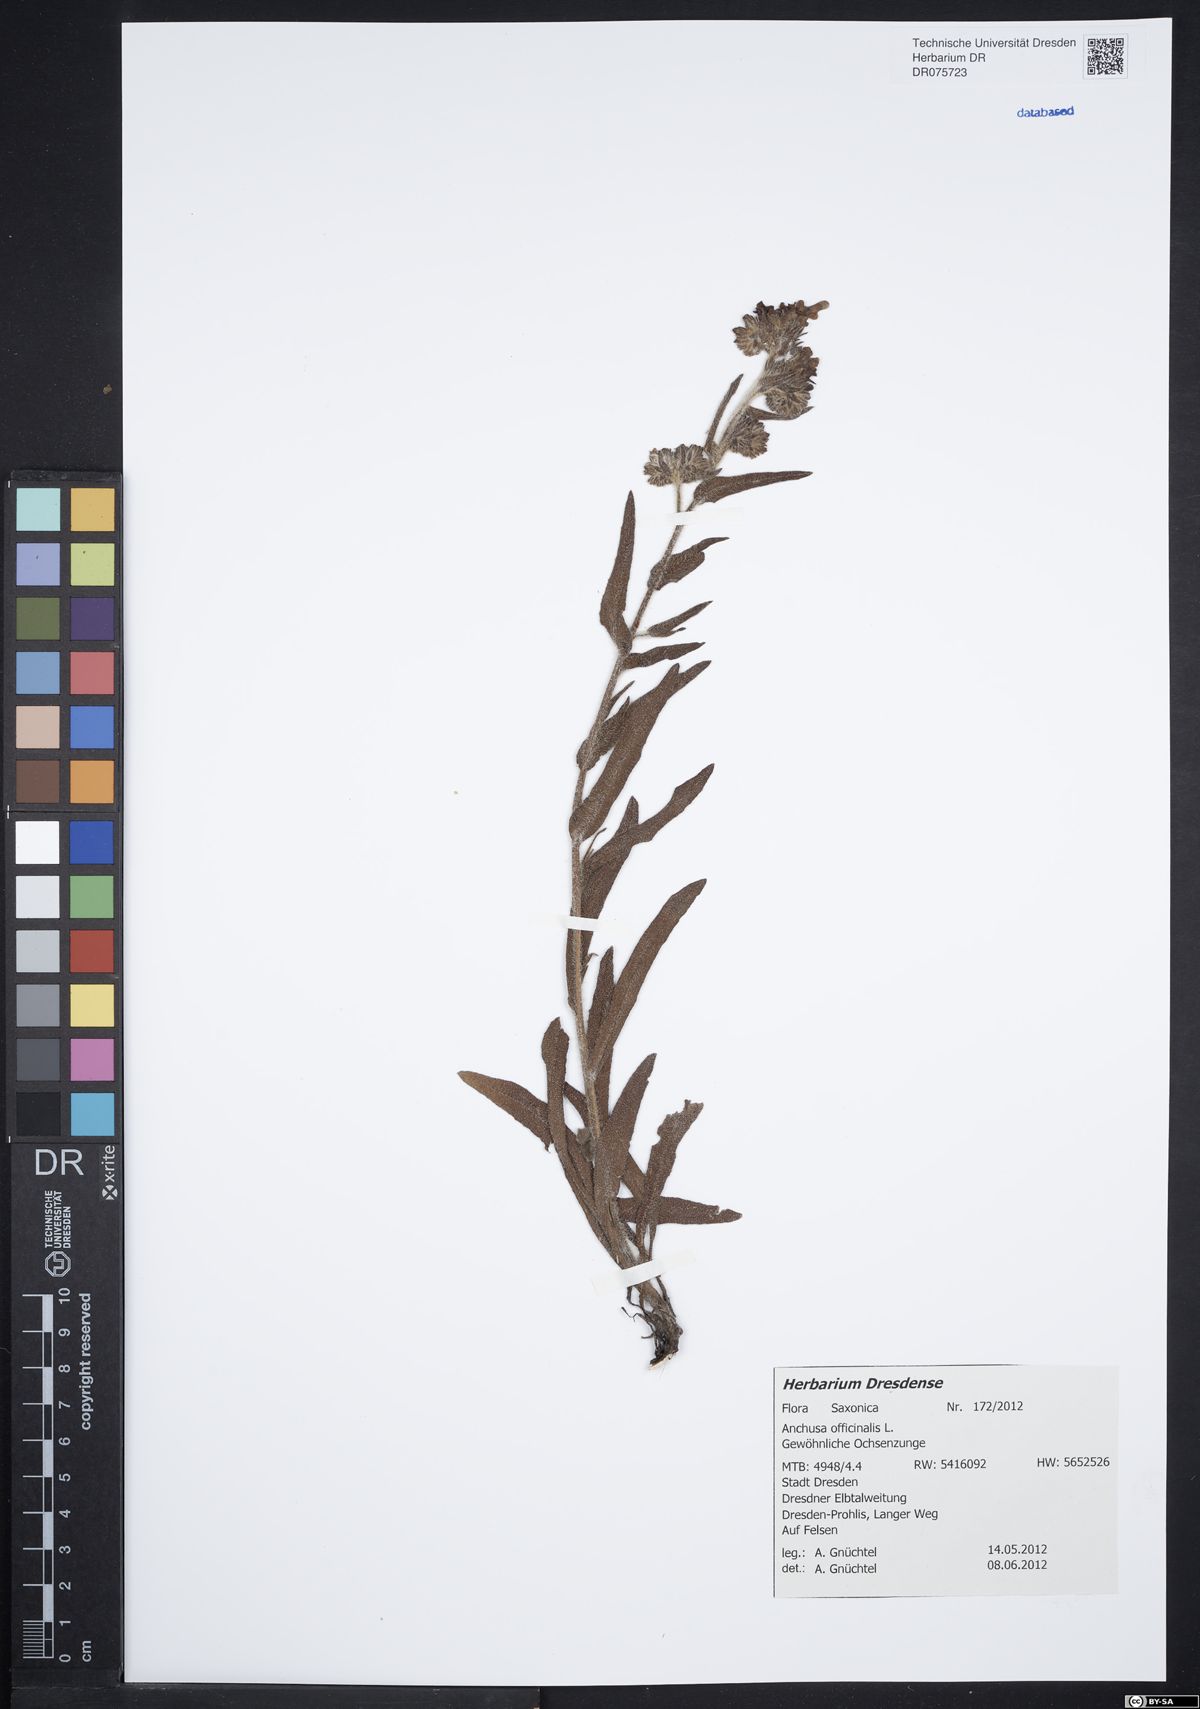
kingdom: Plantae
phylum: Tracheophyta
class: Magnoliopsida
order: Boraginales
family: Boraginaceae
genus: Anchusa
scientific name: Anchusa officinalis
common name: Alkanet
